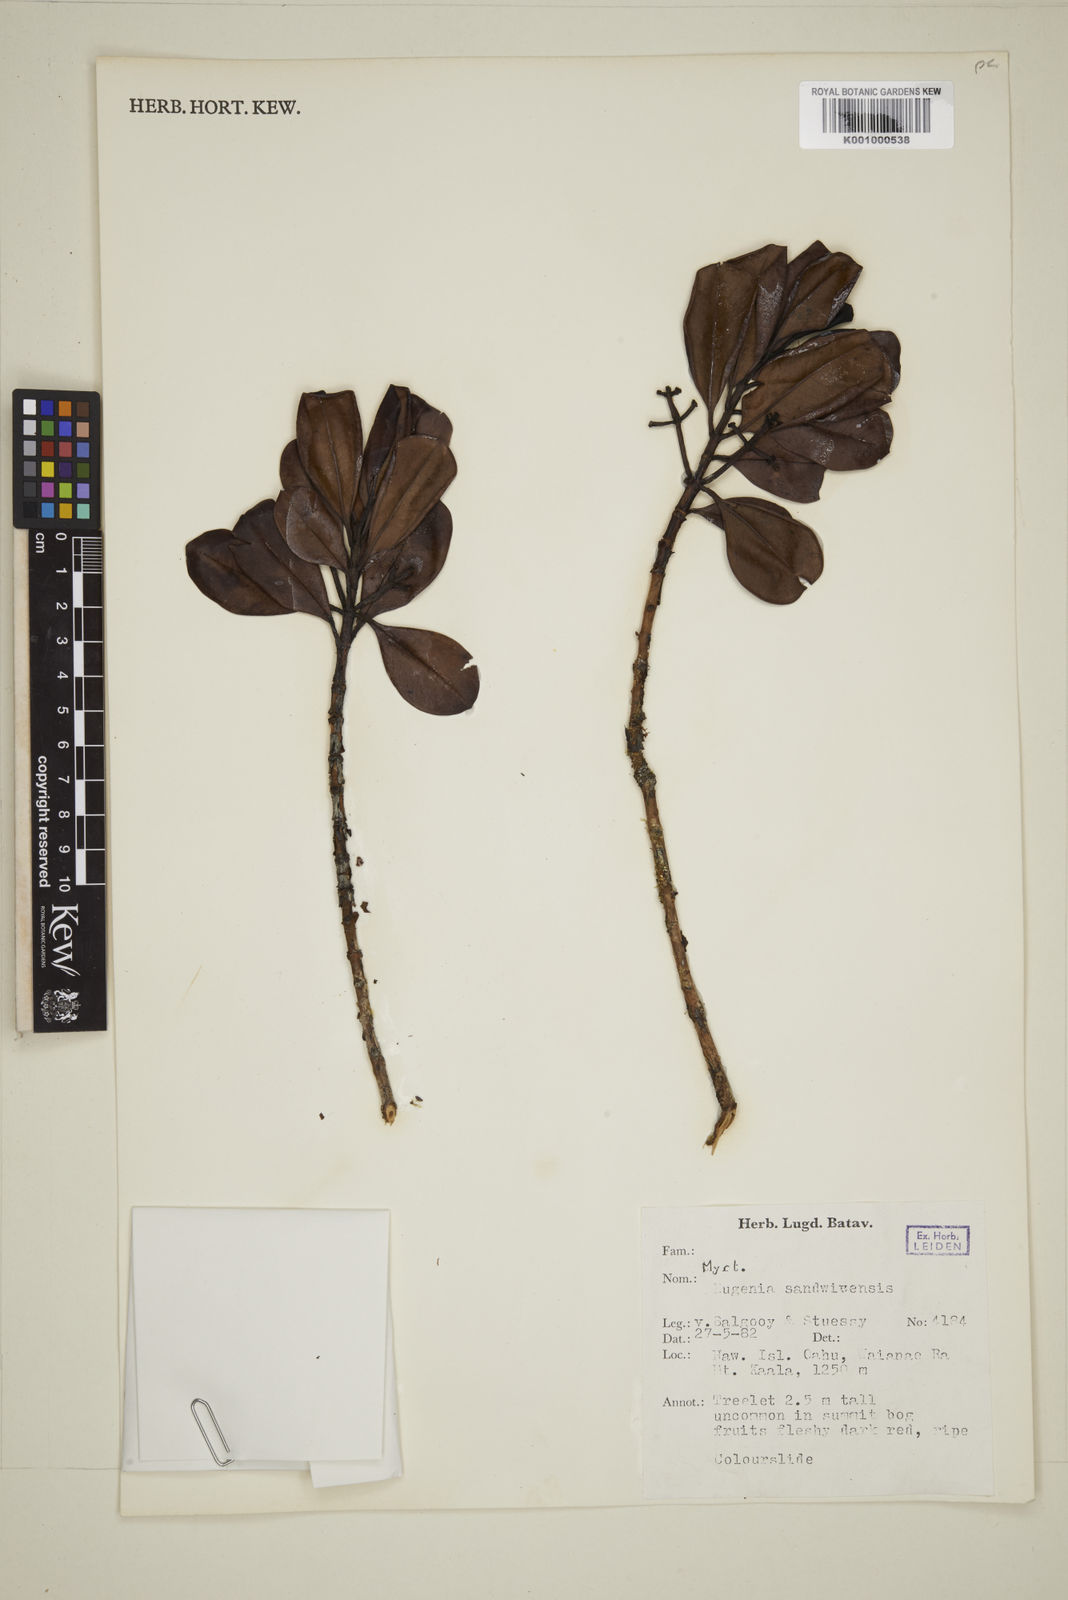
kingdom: Plantae
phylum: Tracheophyta
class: Magnoliopsida
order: Myrtales
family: Myrtaceae
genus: Syzygium
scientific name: Syzygium sandwicense
